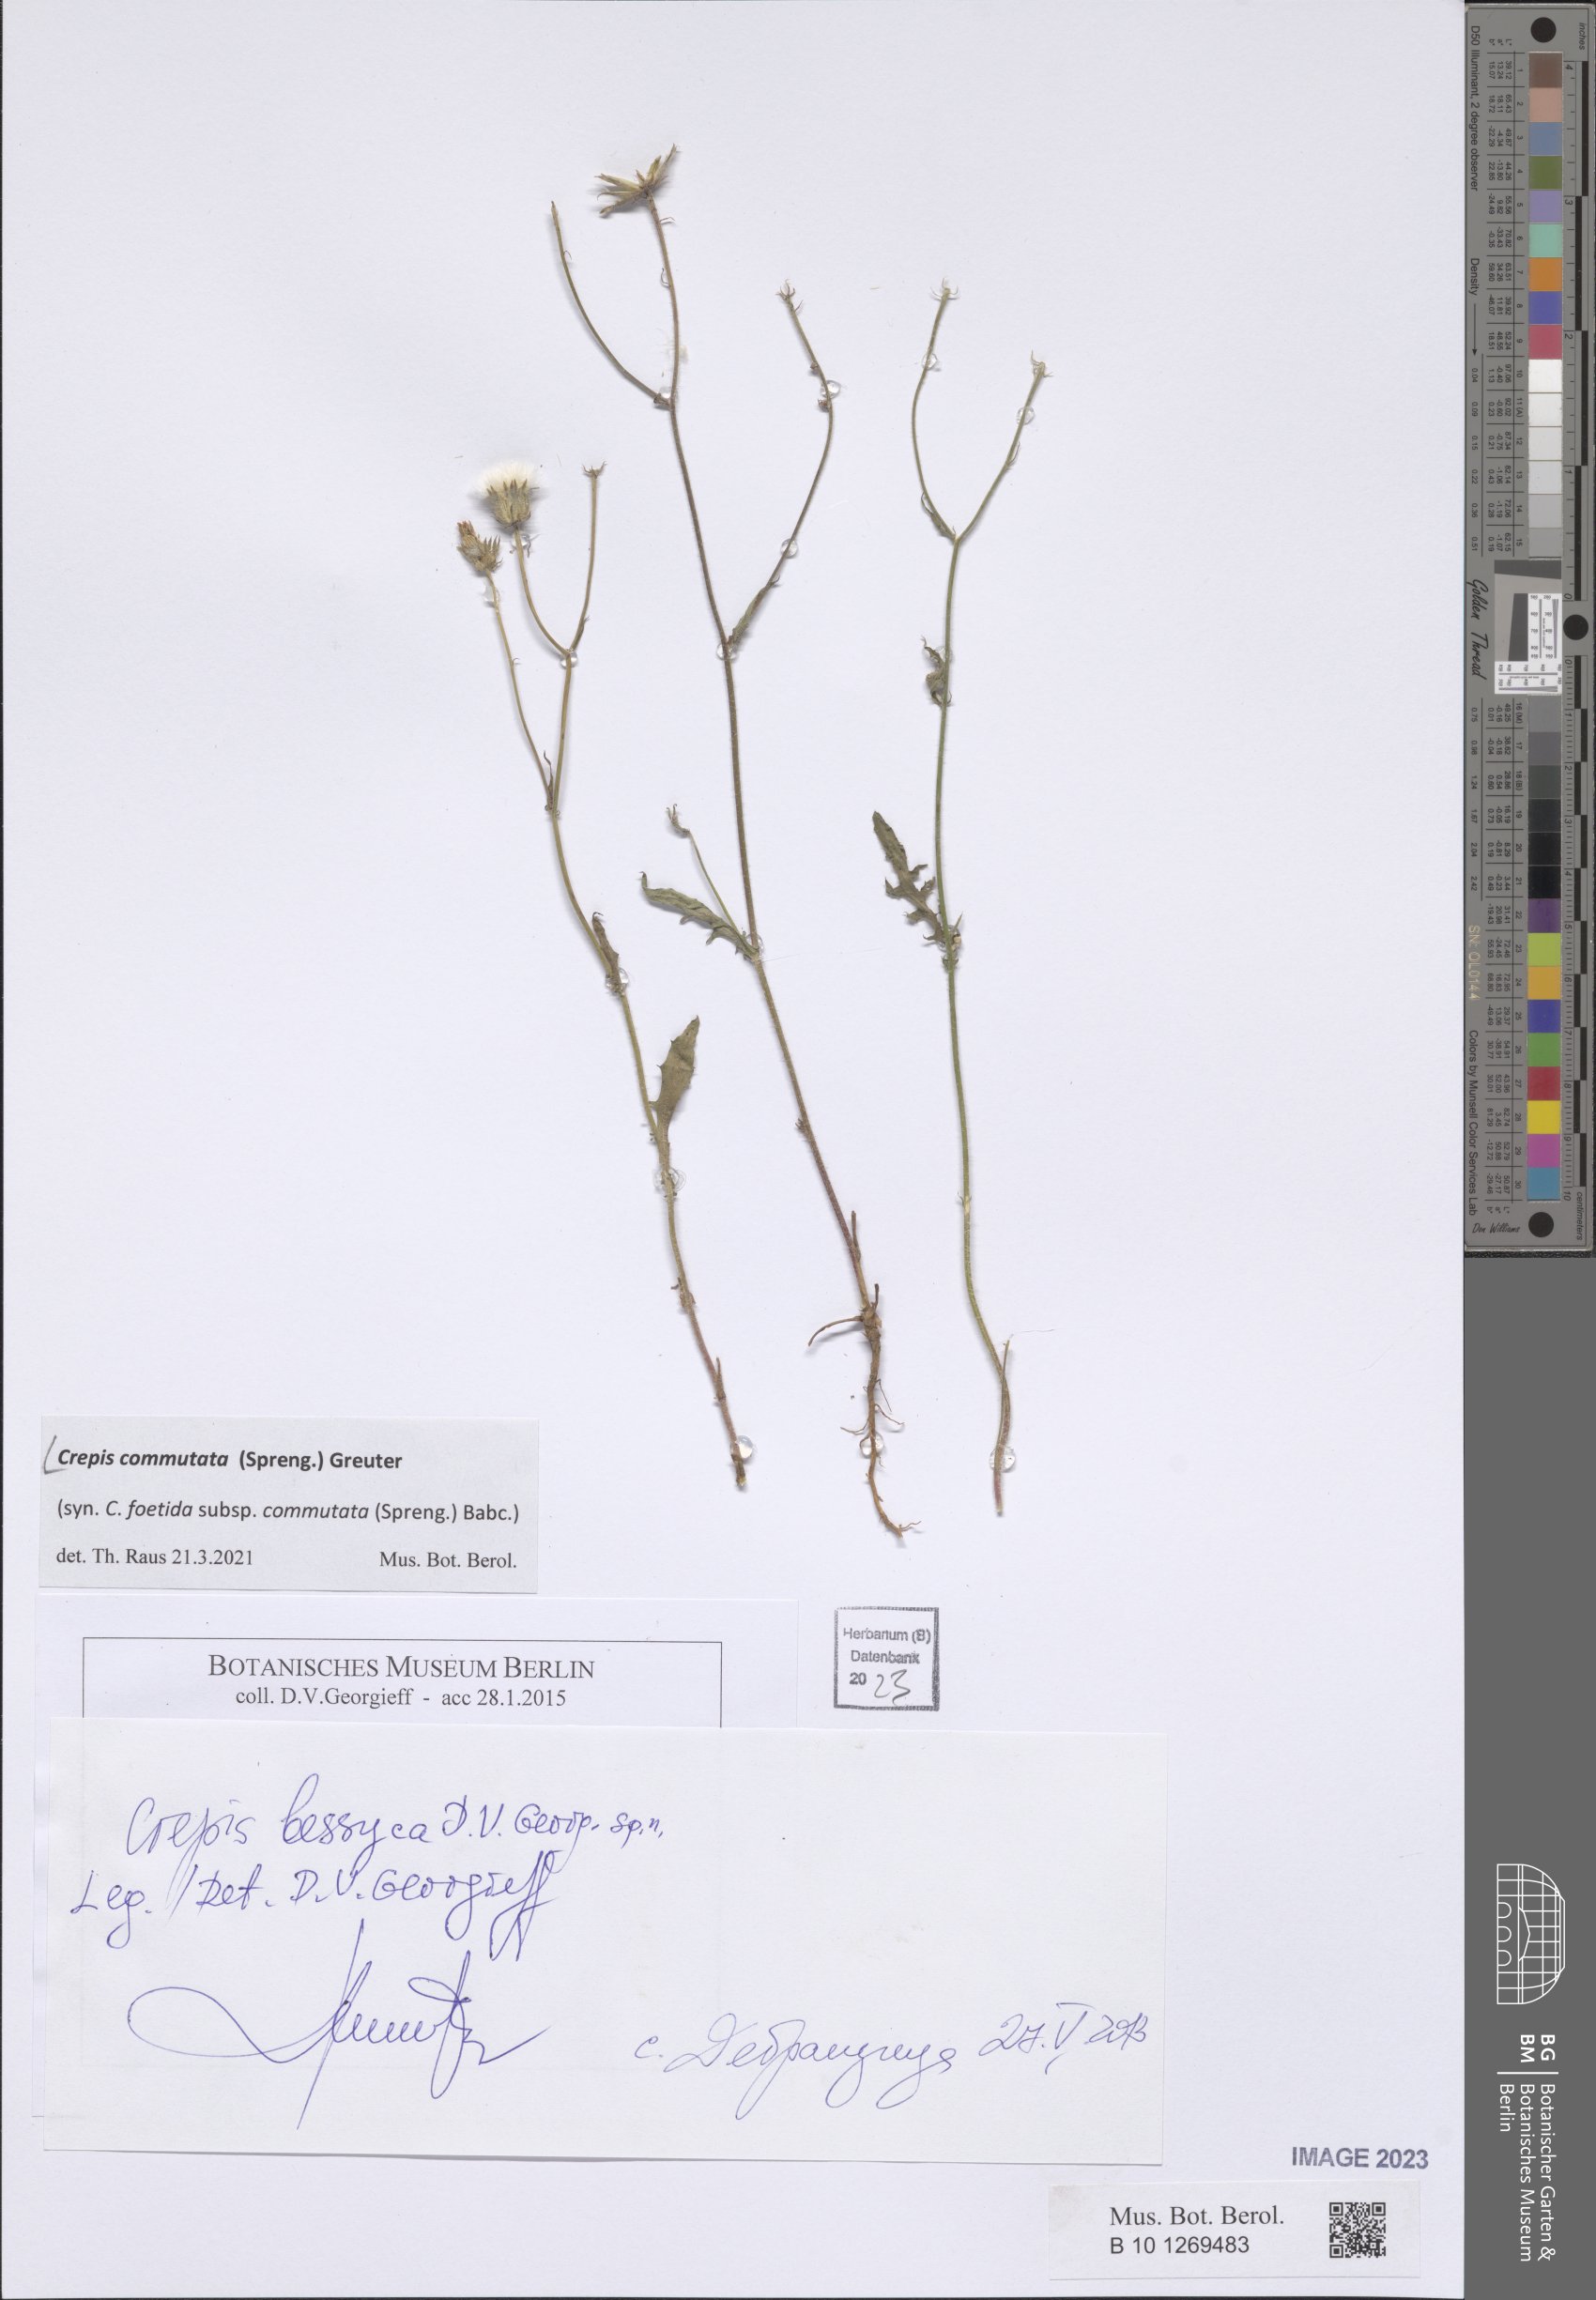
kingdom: Plantae
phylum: Tracheophyta
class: Magnoliopsida
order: Asterales
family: Asteraceae
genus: Crepis
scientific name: Crepis commutata
